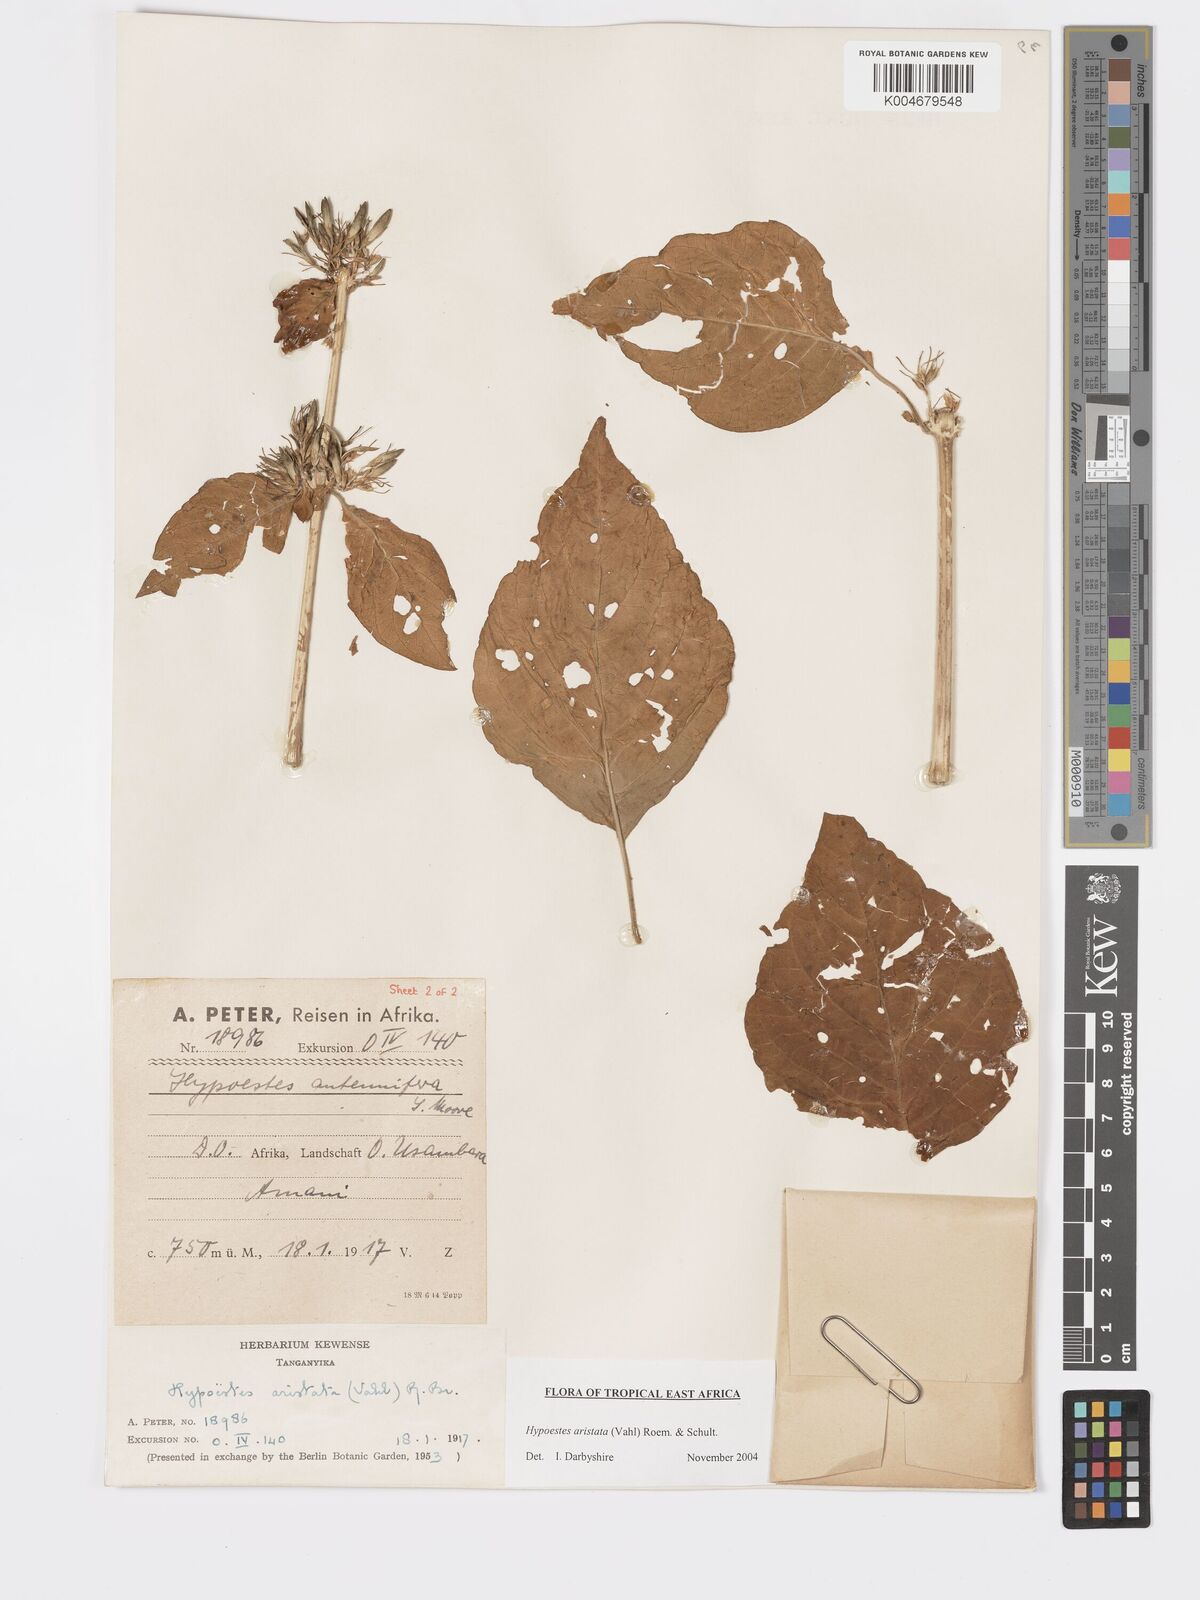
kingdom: Plantae
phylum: Tracheophyta
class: Magnoliopsida
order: Lamiales
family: Acanthaceae
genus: Hypoestes
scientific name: Hypoestes aristata
